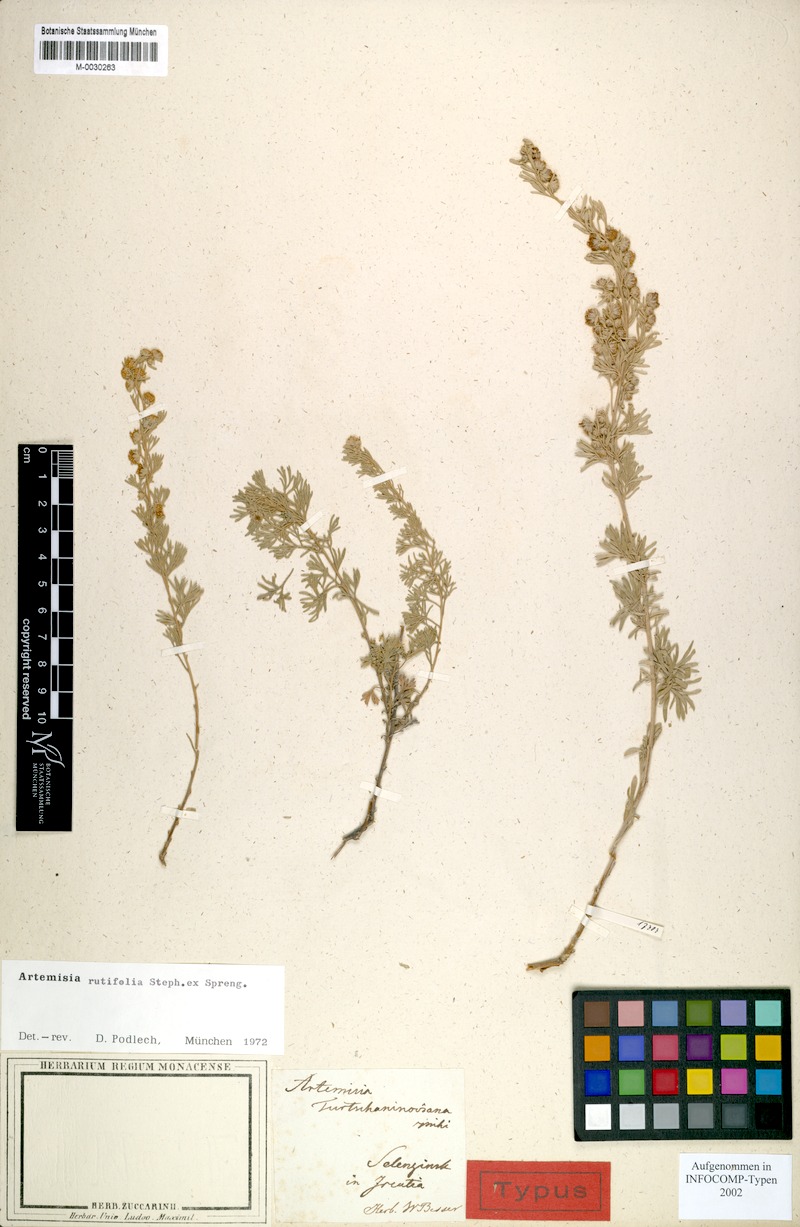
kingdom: Plantae
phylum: Tracheophyta
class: Magnoliopsida
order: Asterales
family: Asteraceae
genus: Artemisia
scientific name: Artemisia rutifolia
